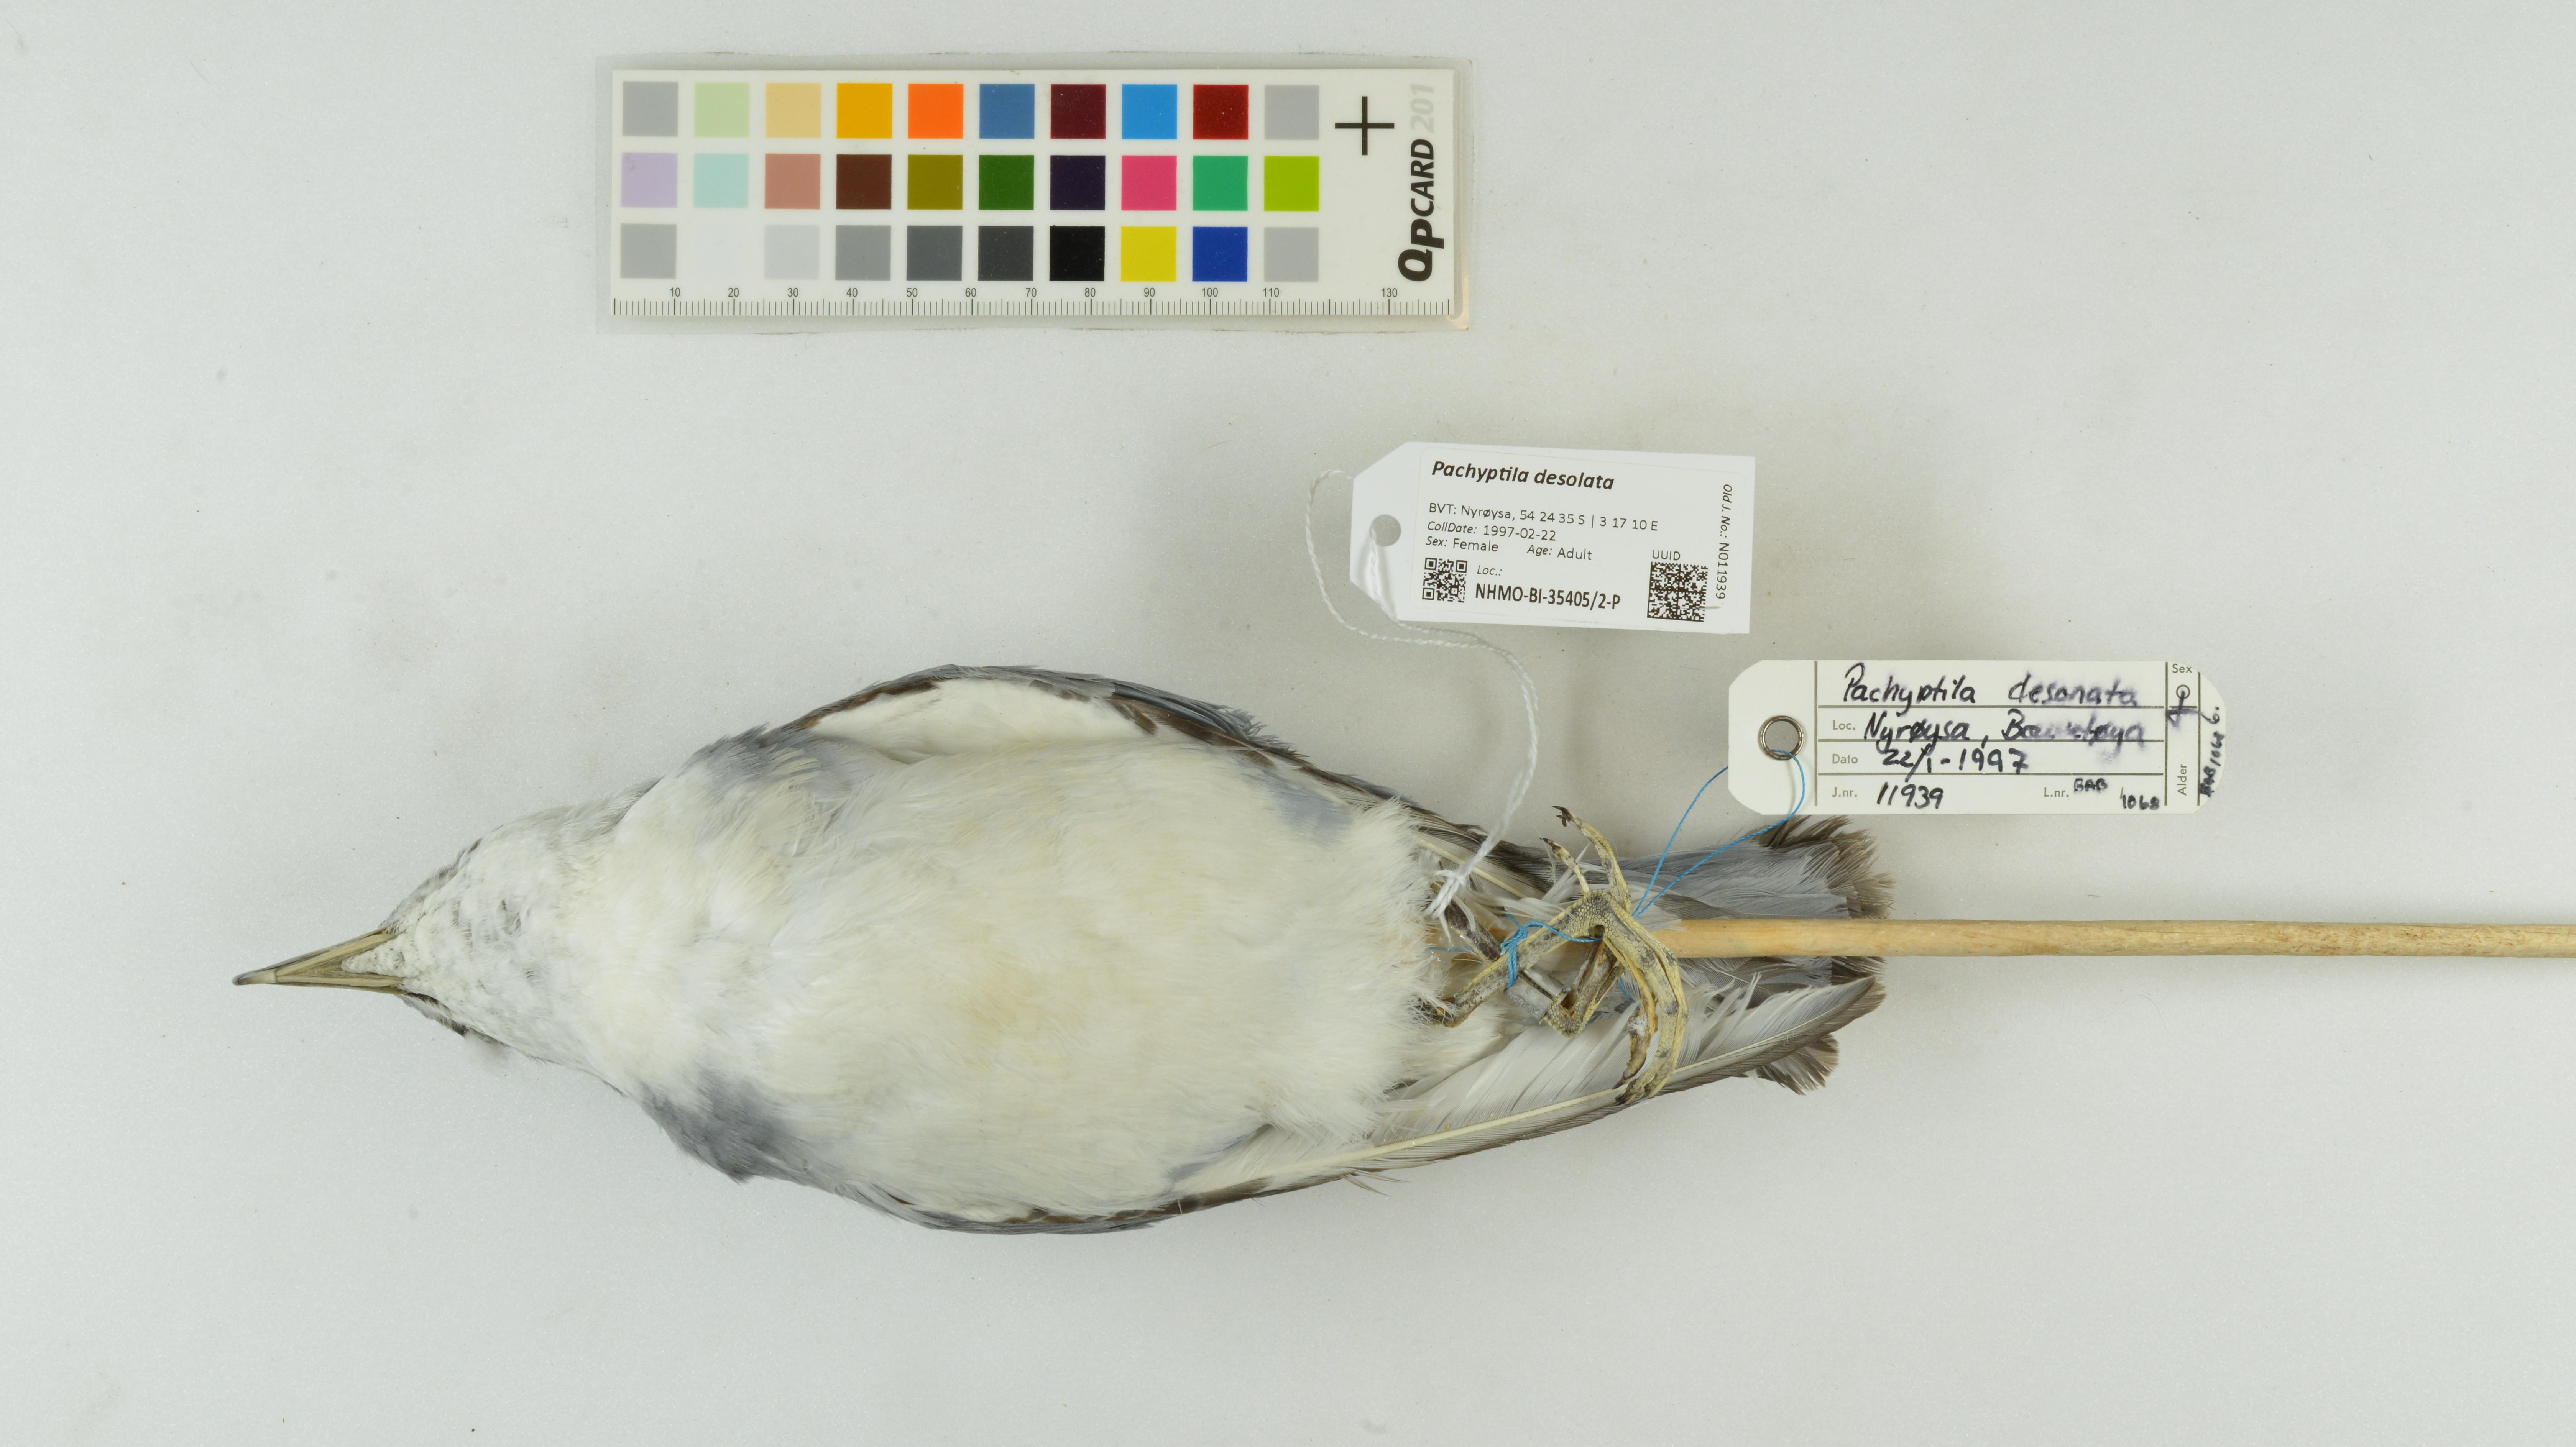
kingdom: Animalia
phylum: Chordata
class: Aves
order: Procellariiformes
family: Procellariidae
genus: Pachyptila
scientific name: Pachyptila desolata
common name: Antarctic prion
